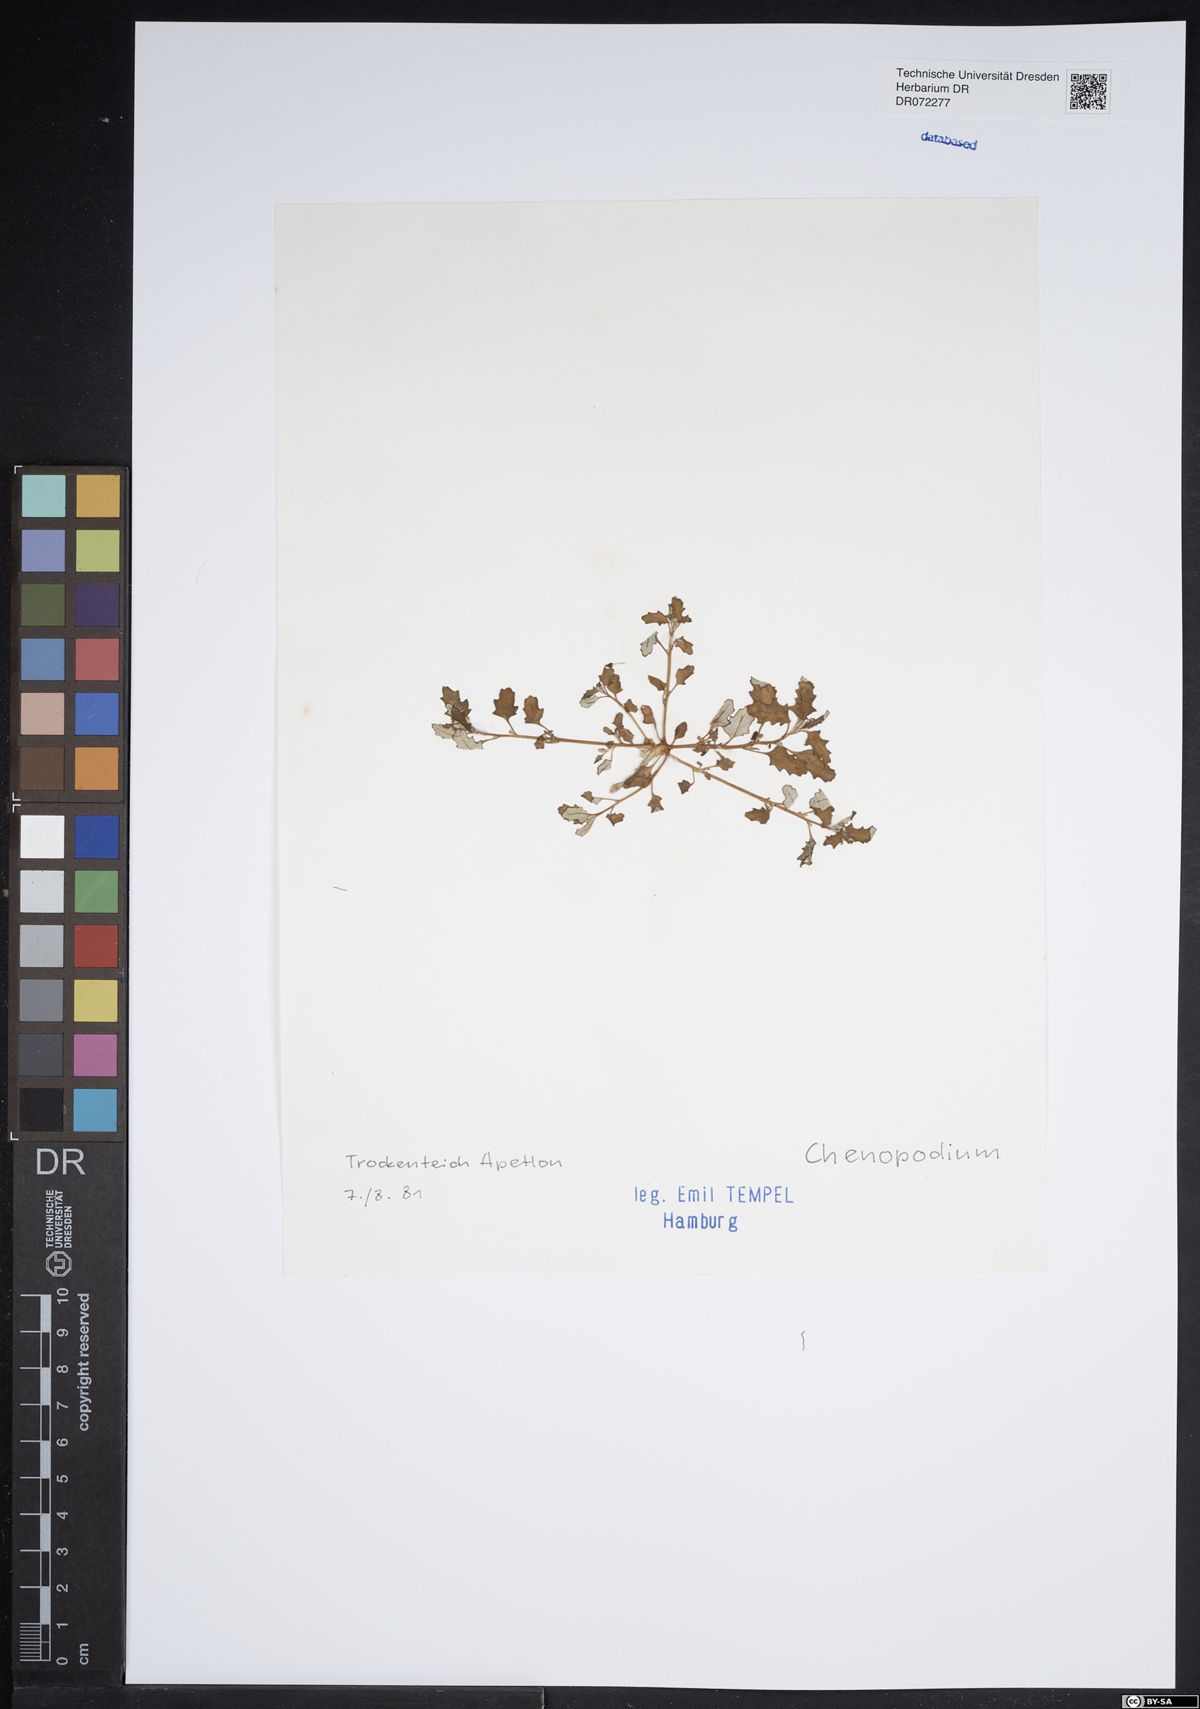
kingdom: Plantae
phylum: Tracheophyta
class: Magnoliopsida
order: Caryophyllales
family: Amaranthaceae
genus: Chenopodium
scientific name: Chenopodium
